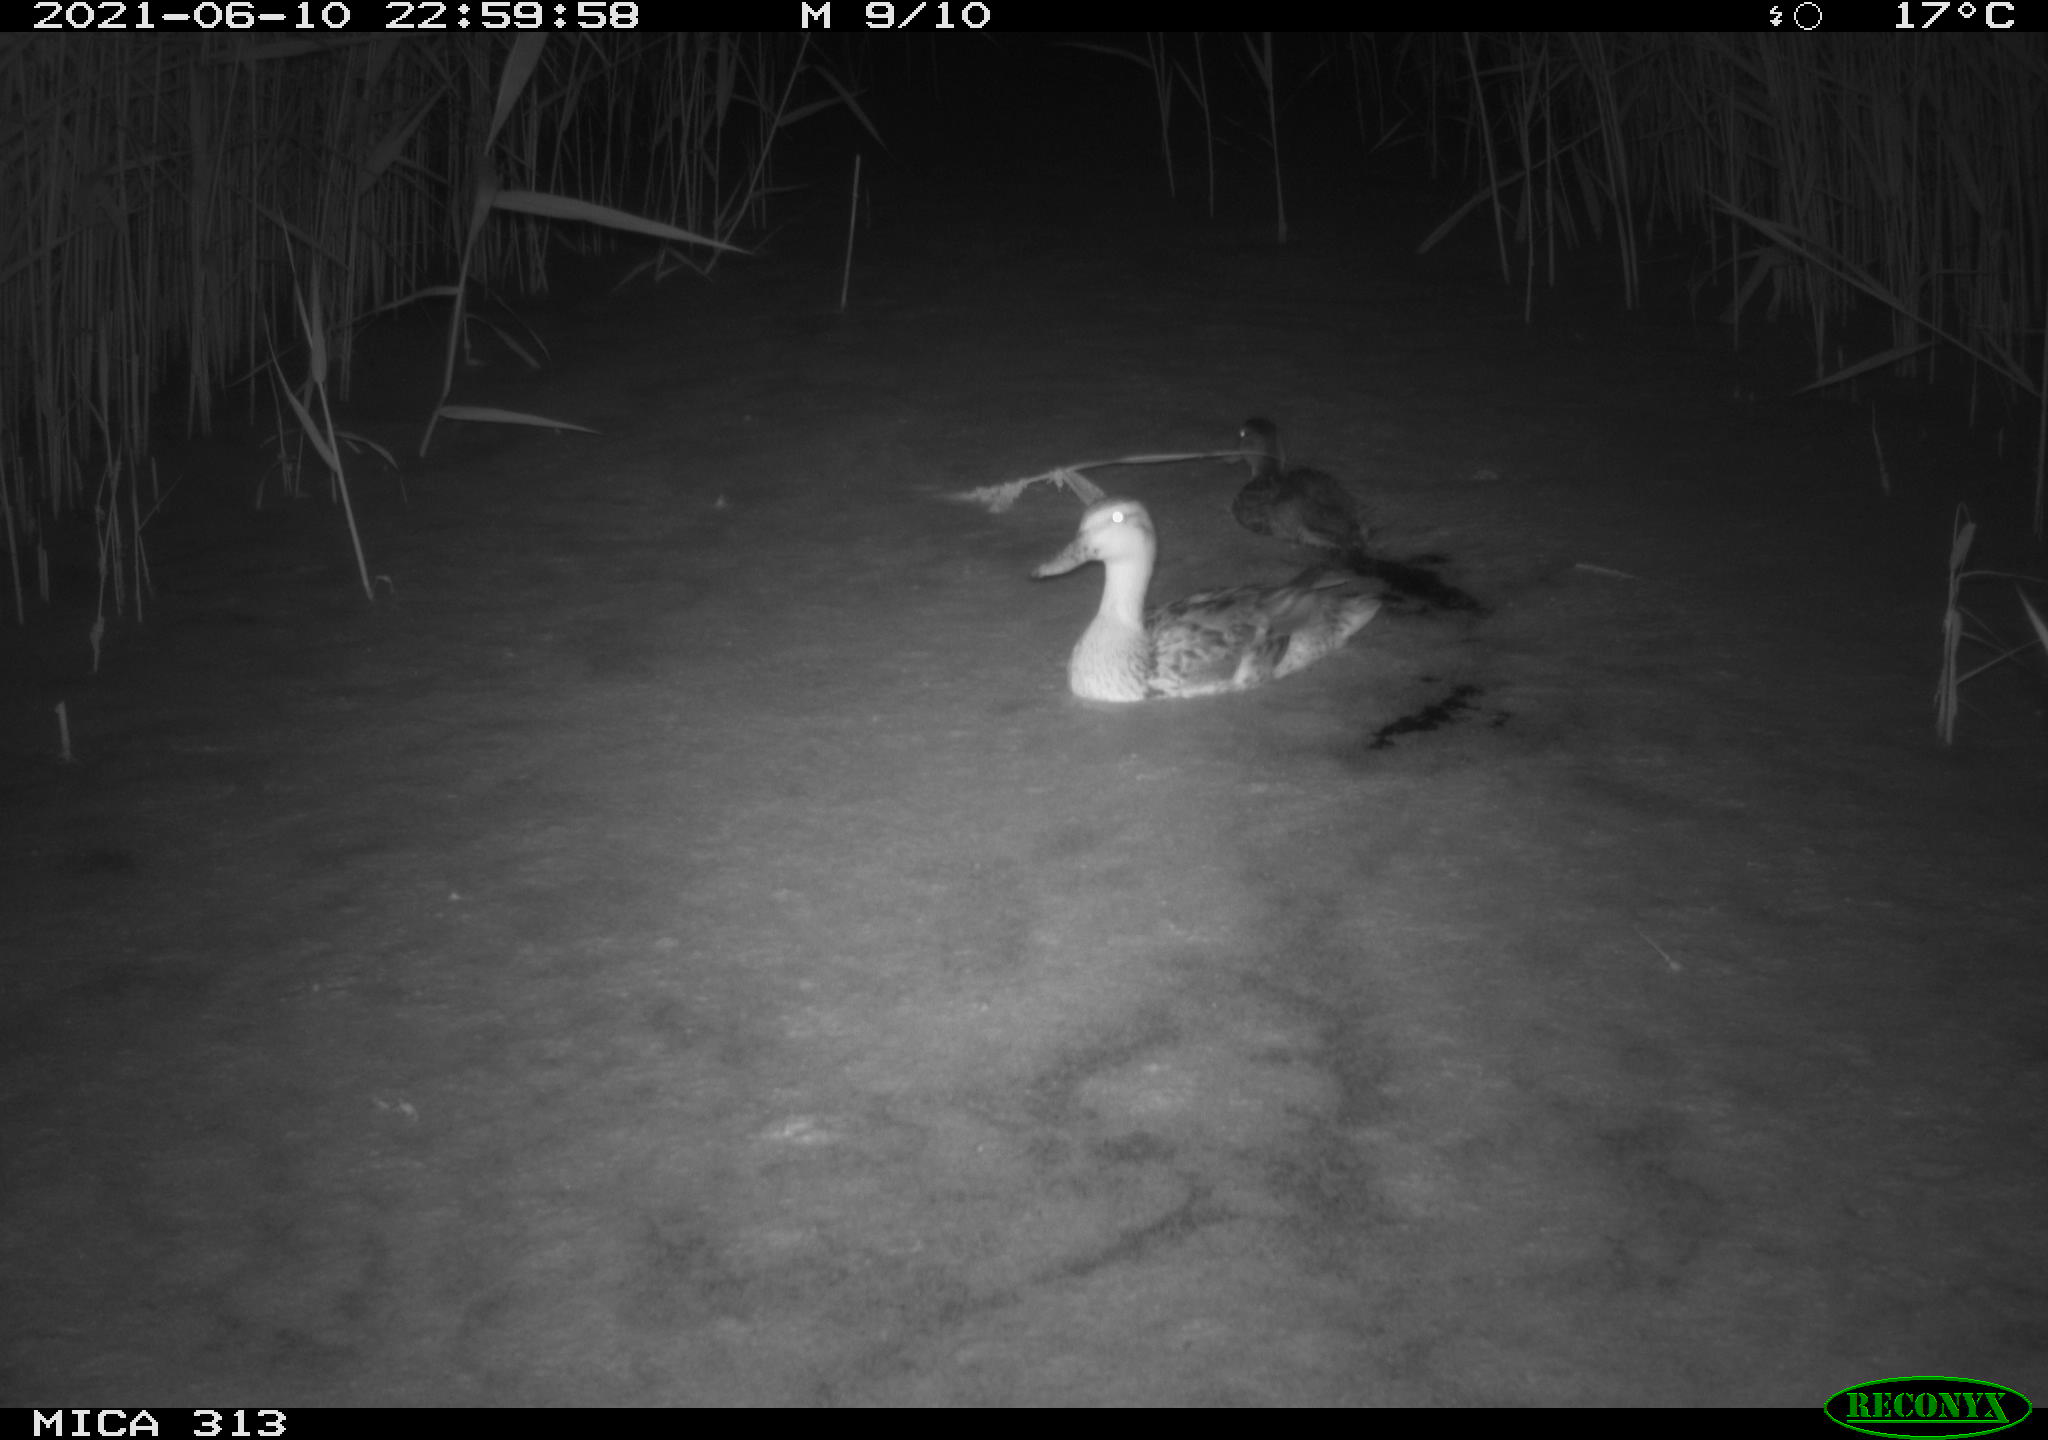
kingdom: Animalia
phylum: Chordata
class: Aves
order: Anseriformes
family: Anatidae
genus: Anas
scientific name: Anas
